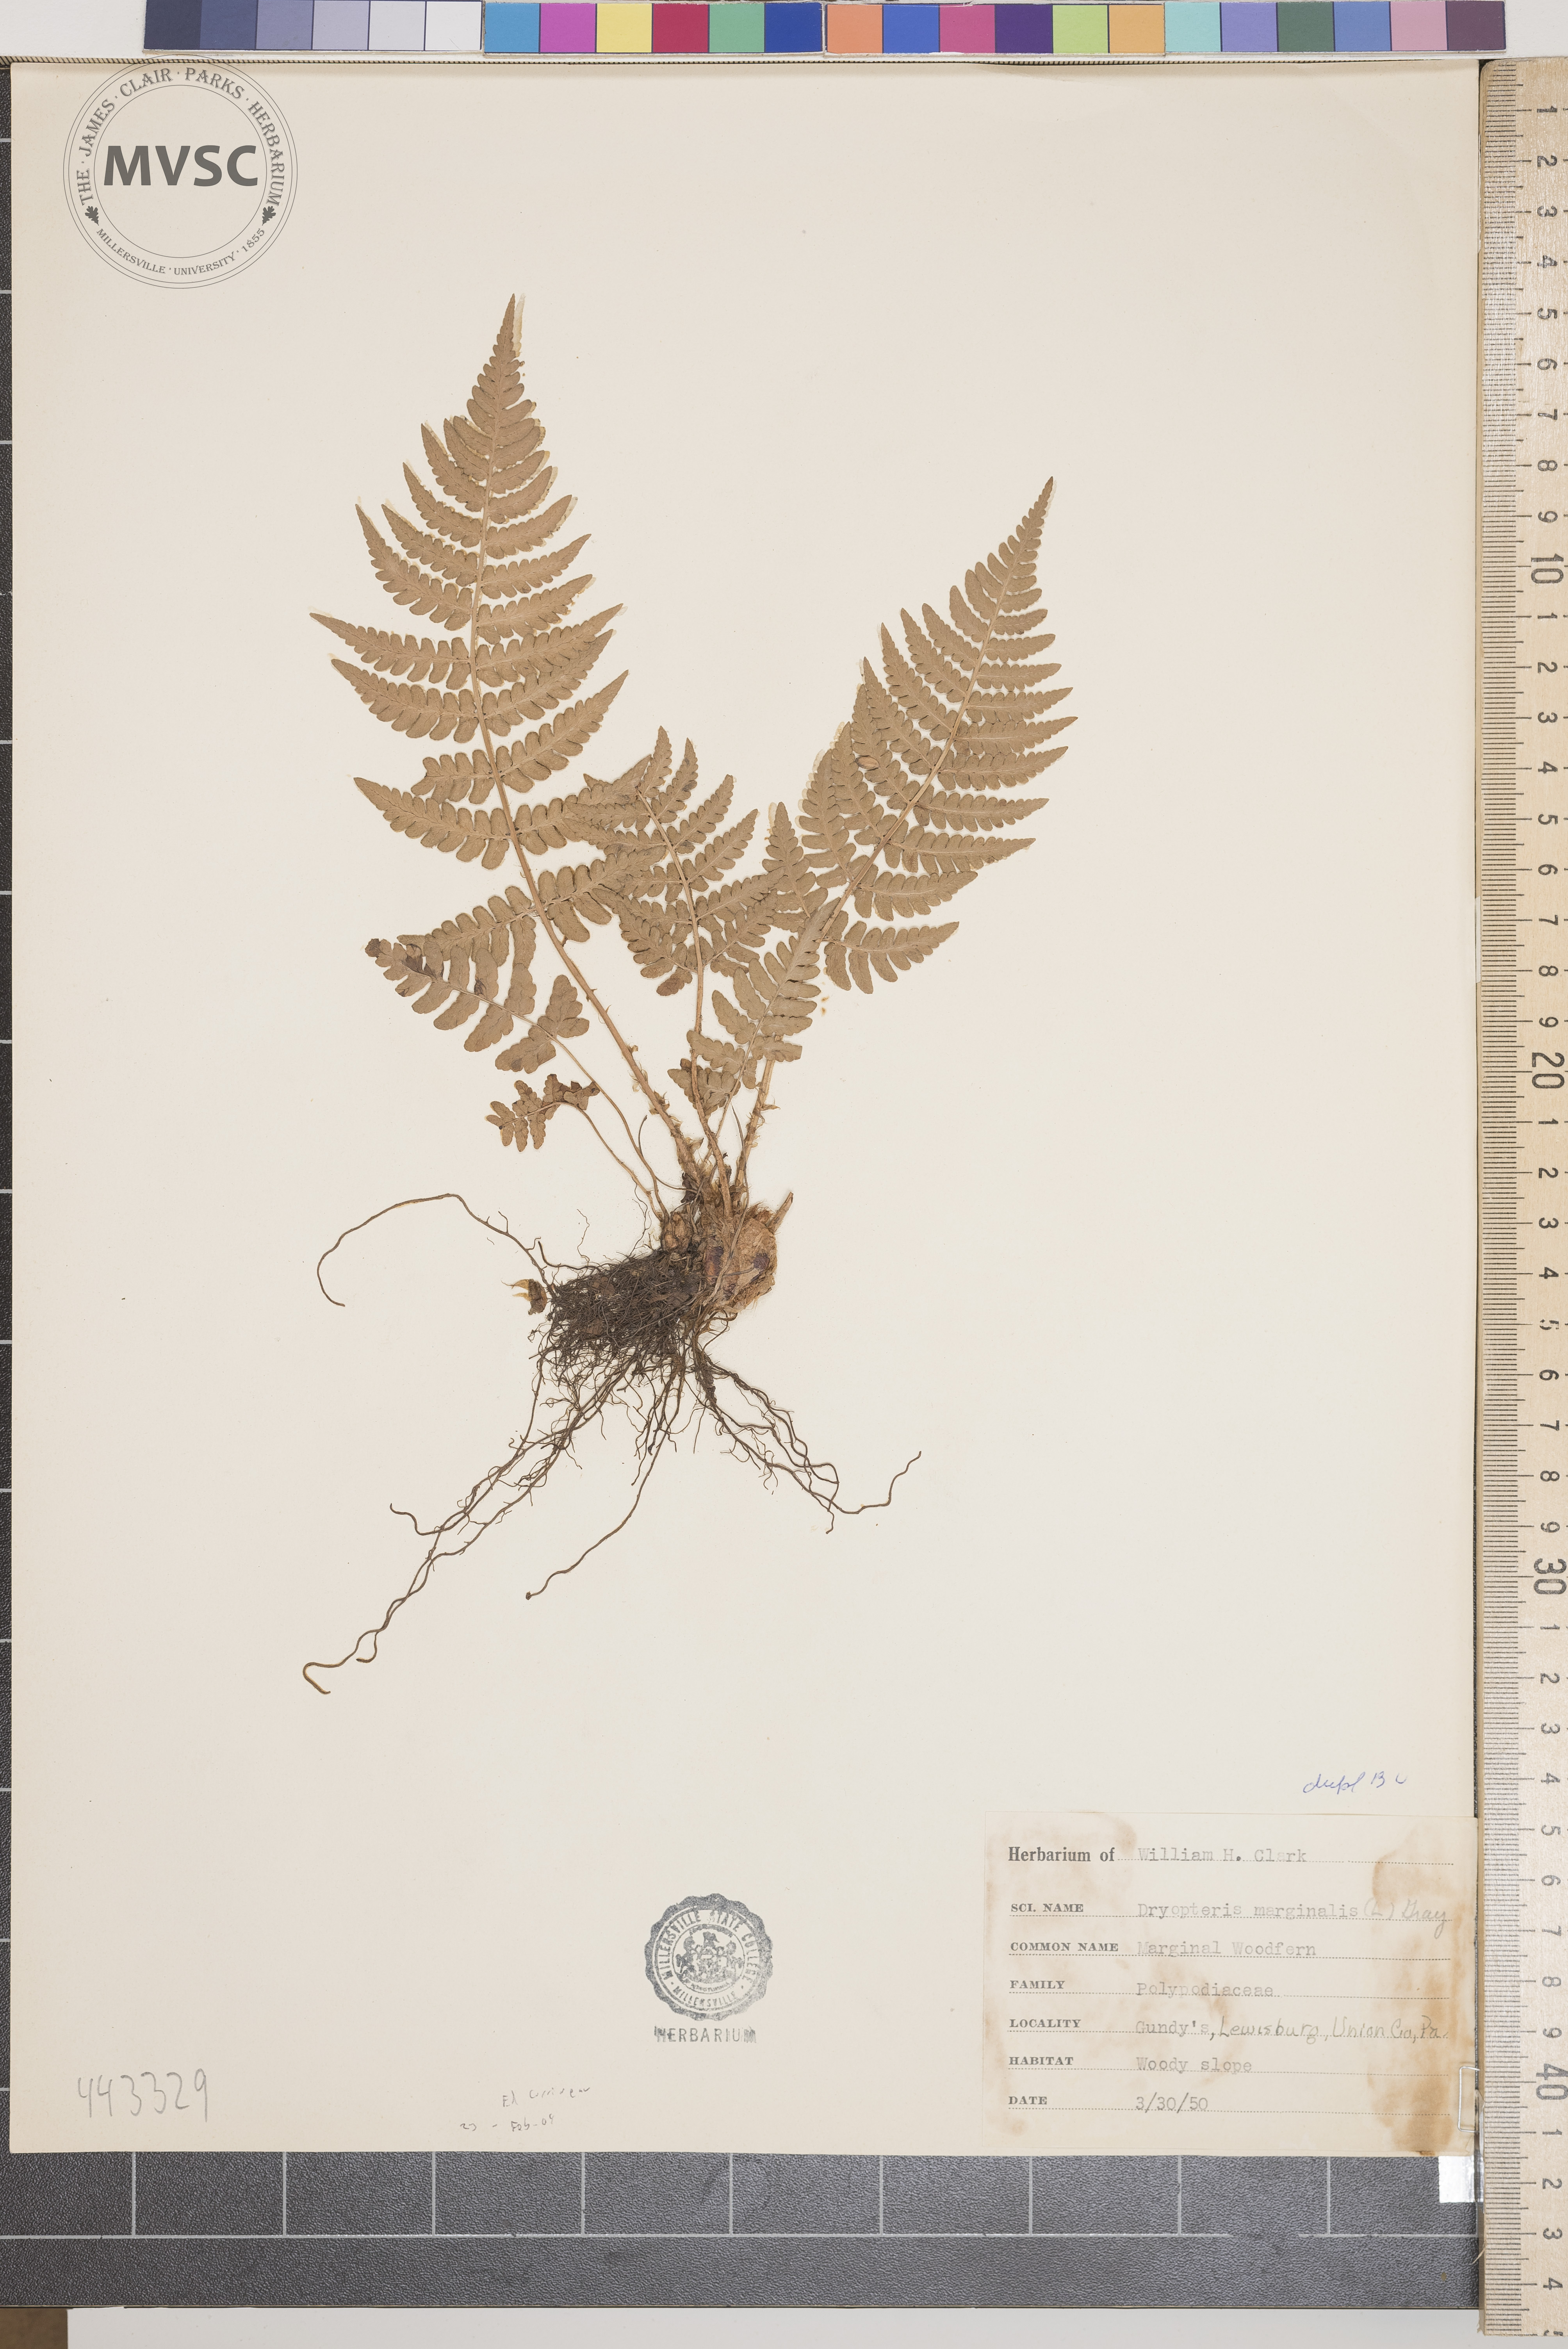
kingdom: Plantae
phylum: Tracheophyta
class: Polypodiopsida
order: Polypodiales
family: Dryopteridaceae
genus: Dryopteris
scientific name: Dryopteris marginalis
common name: Marginal woodfern
